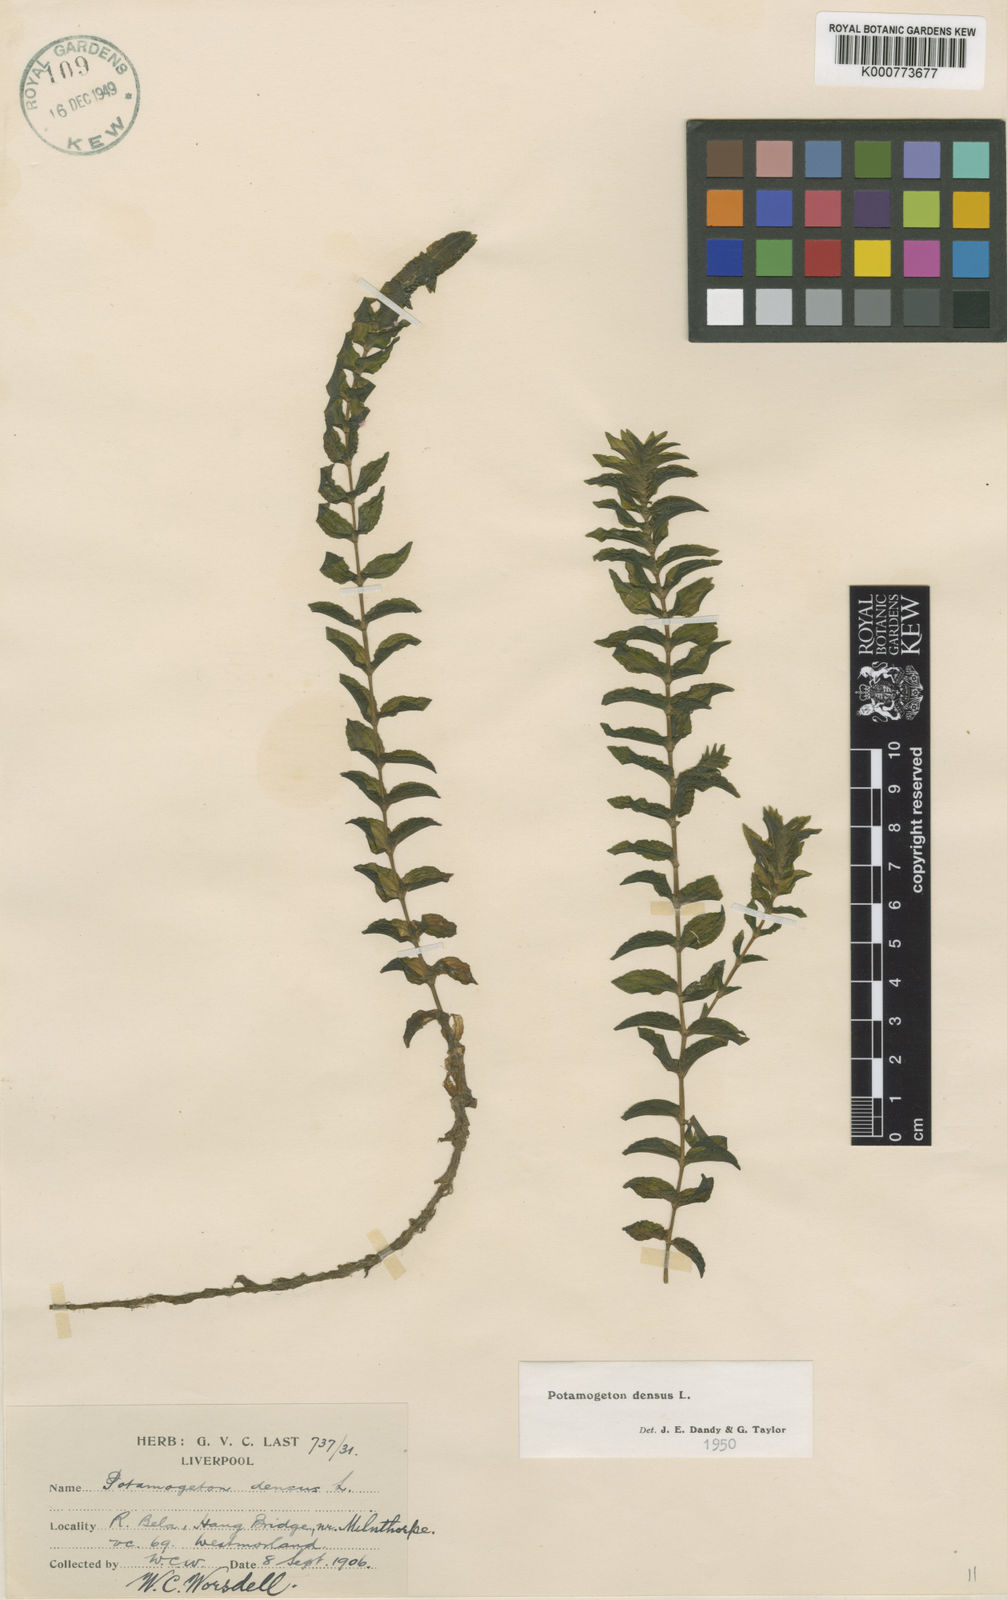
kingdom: Plantae
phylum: Tracheophyta
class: Liliopsida
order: Alismatales
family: Potamogetonaceae
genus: Groenlandia
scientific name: Groenlandia densa
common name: Opposite-leaved pondweed
